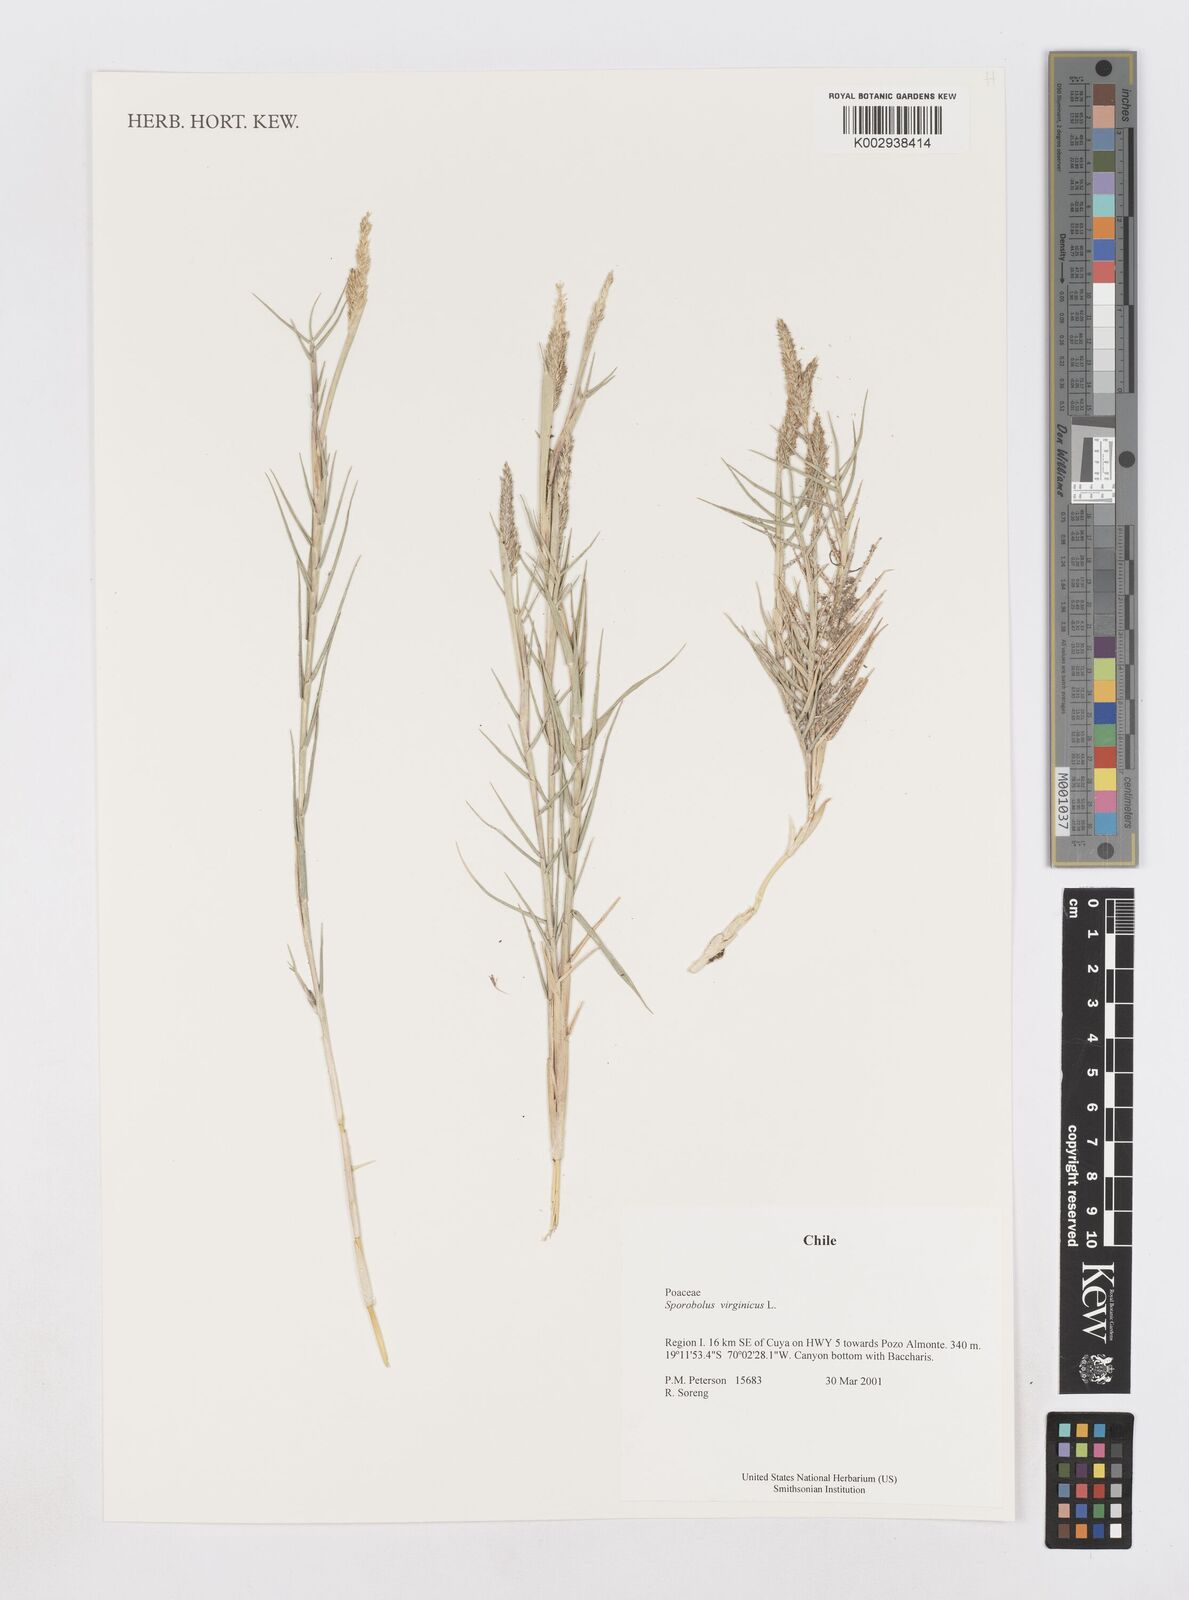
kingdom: Plantae
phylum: Tracheophyta
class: Liliopsida
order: Poales
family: Poaceae
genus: Sporobolus
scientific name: Sporobolus virginicus
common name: Beach dropseed
